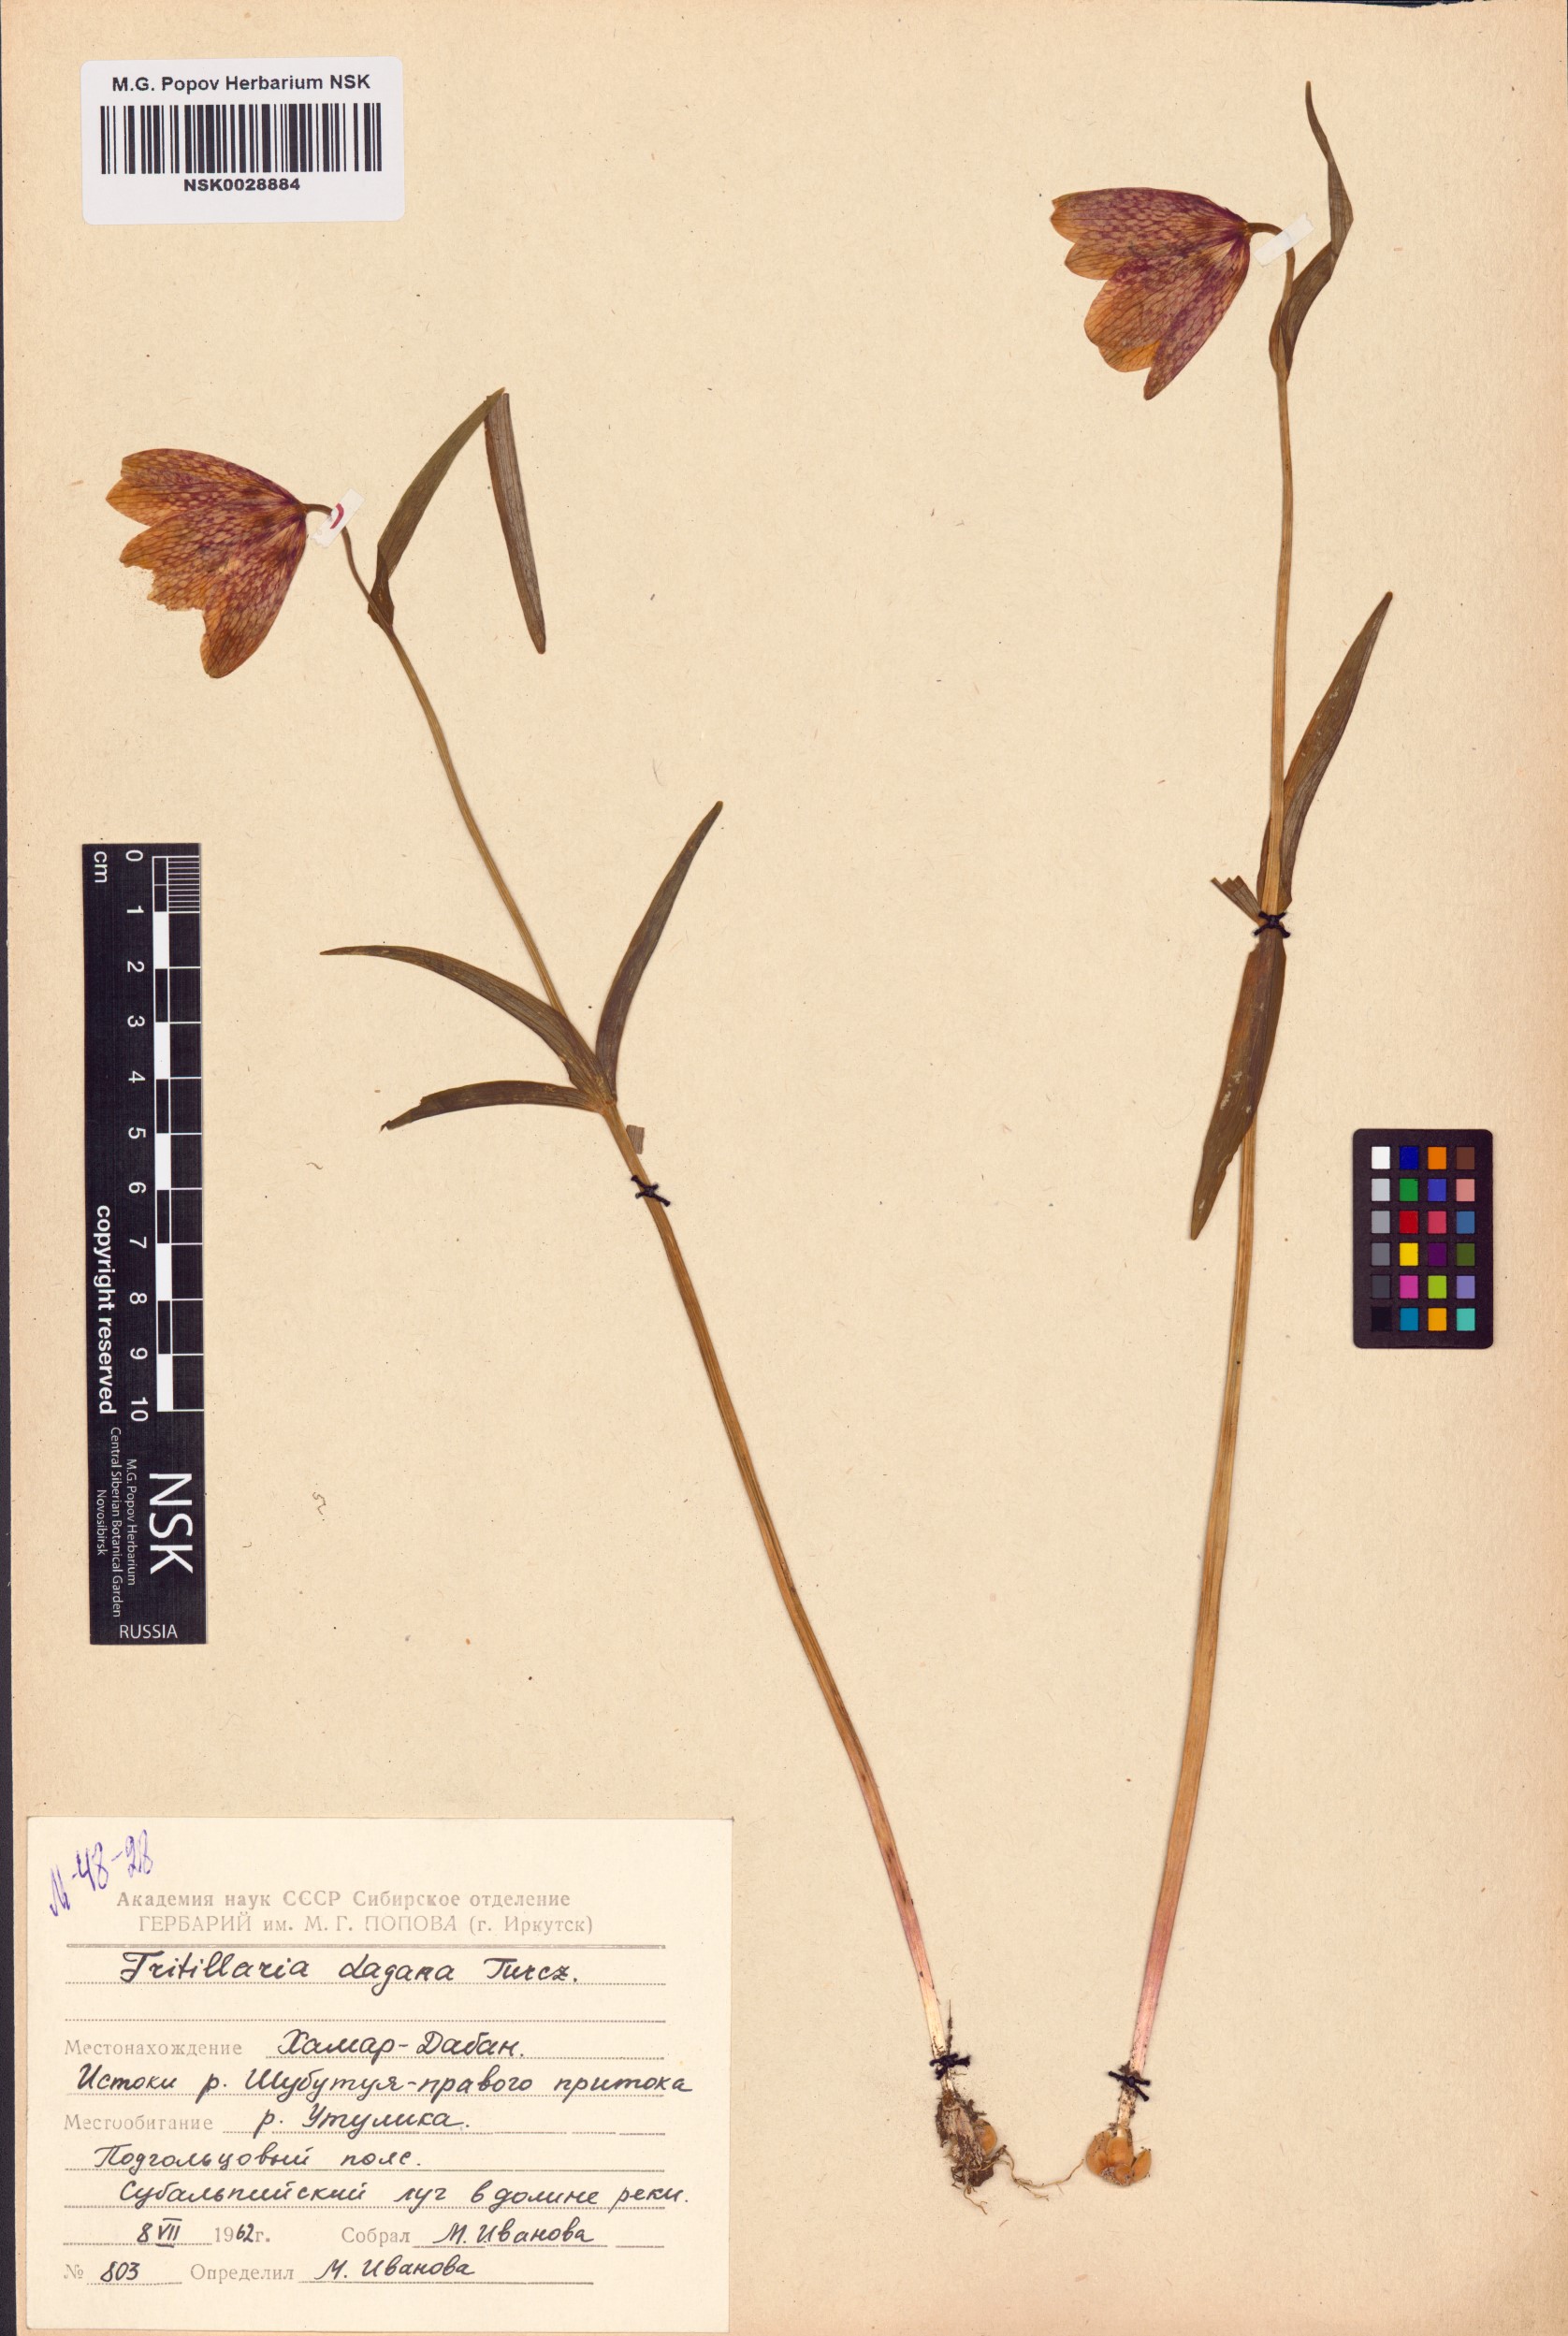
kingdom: Plantae
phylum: Tracheophyta
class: Liliopsida
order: Liliales
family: Liliaceae
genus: Fritillaria
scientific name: Fritillaria dagana
